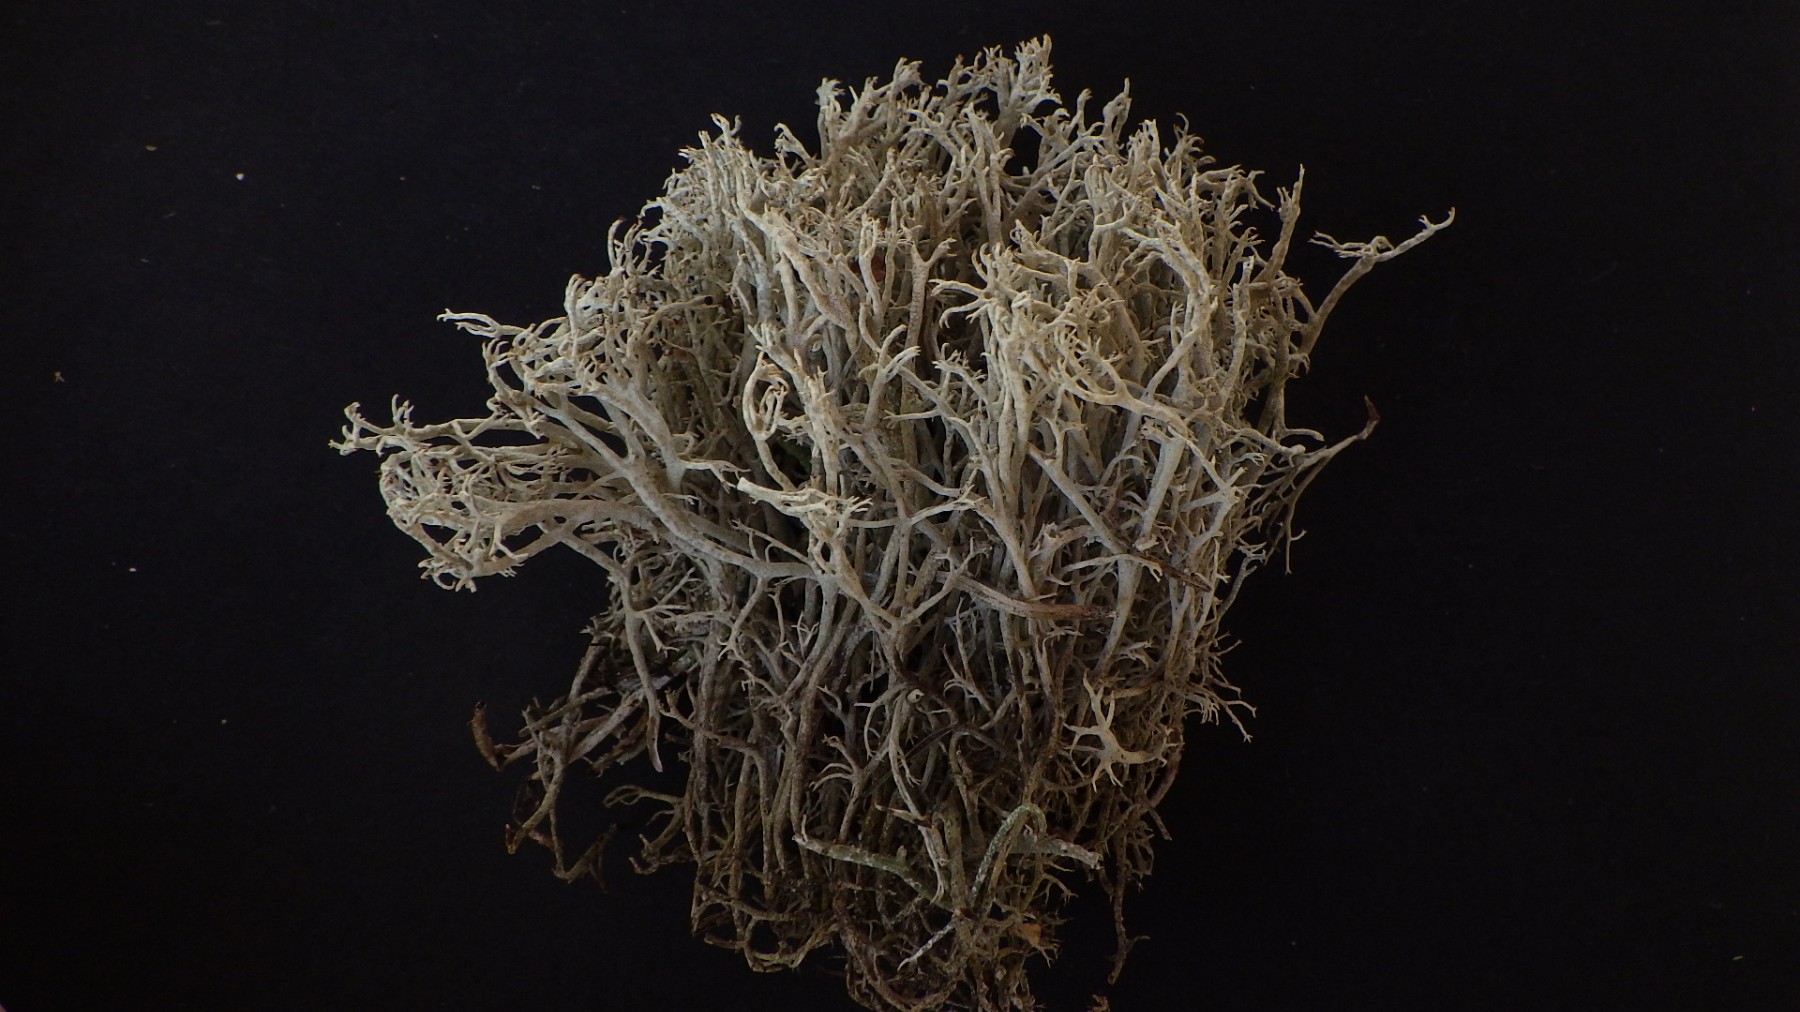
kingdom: Fungi
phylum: Ascomycota
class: Lecanoromycetes
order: Lecanorales
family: Cladoniaceae
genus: Cladonia
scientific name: Cladonia mitis
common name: mild rensdyrlav
